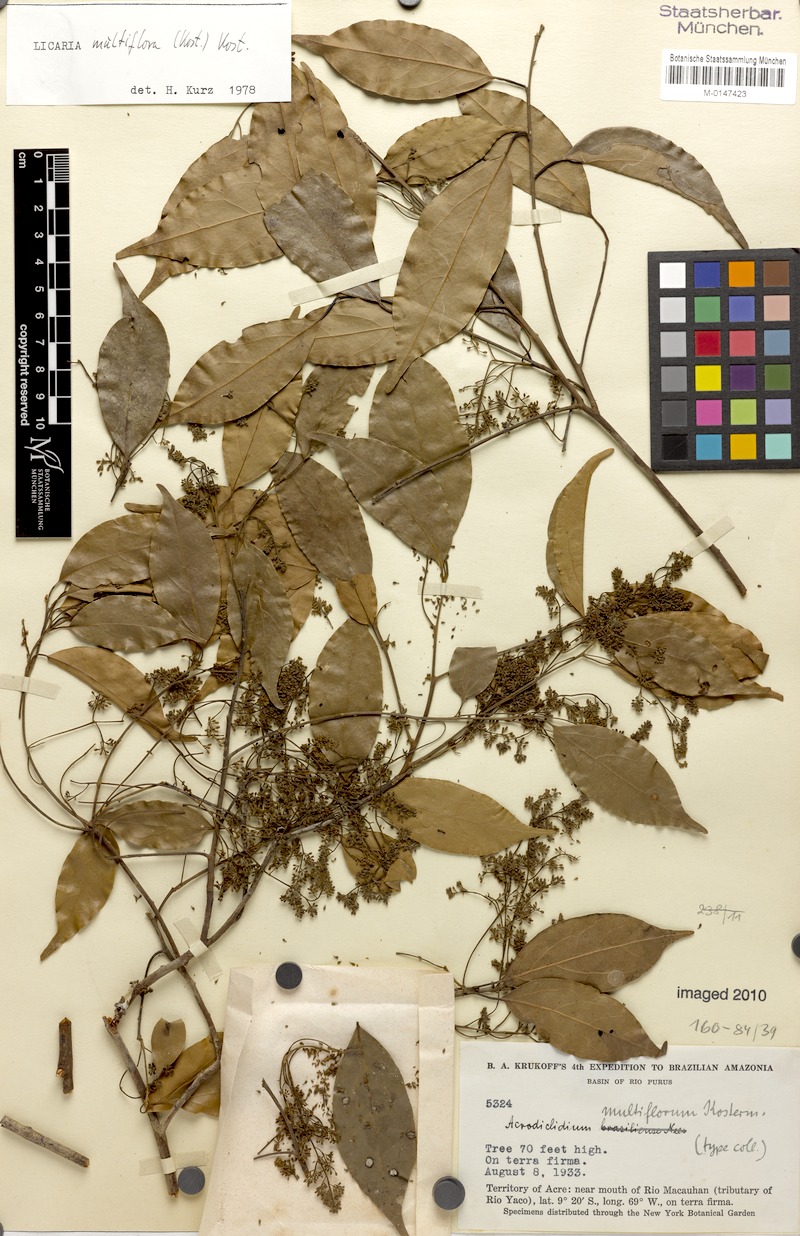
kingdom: Plantae
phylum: Tracheophyta
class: Magnoliopsida
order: Laurales
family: Lauraceae
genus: Licaria
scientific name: Licaria multiflora
